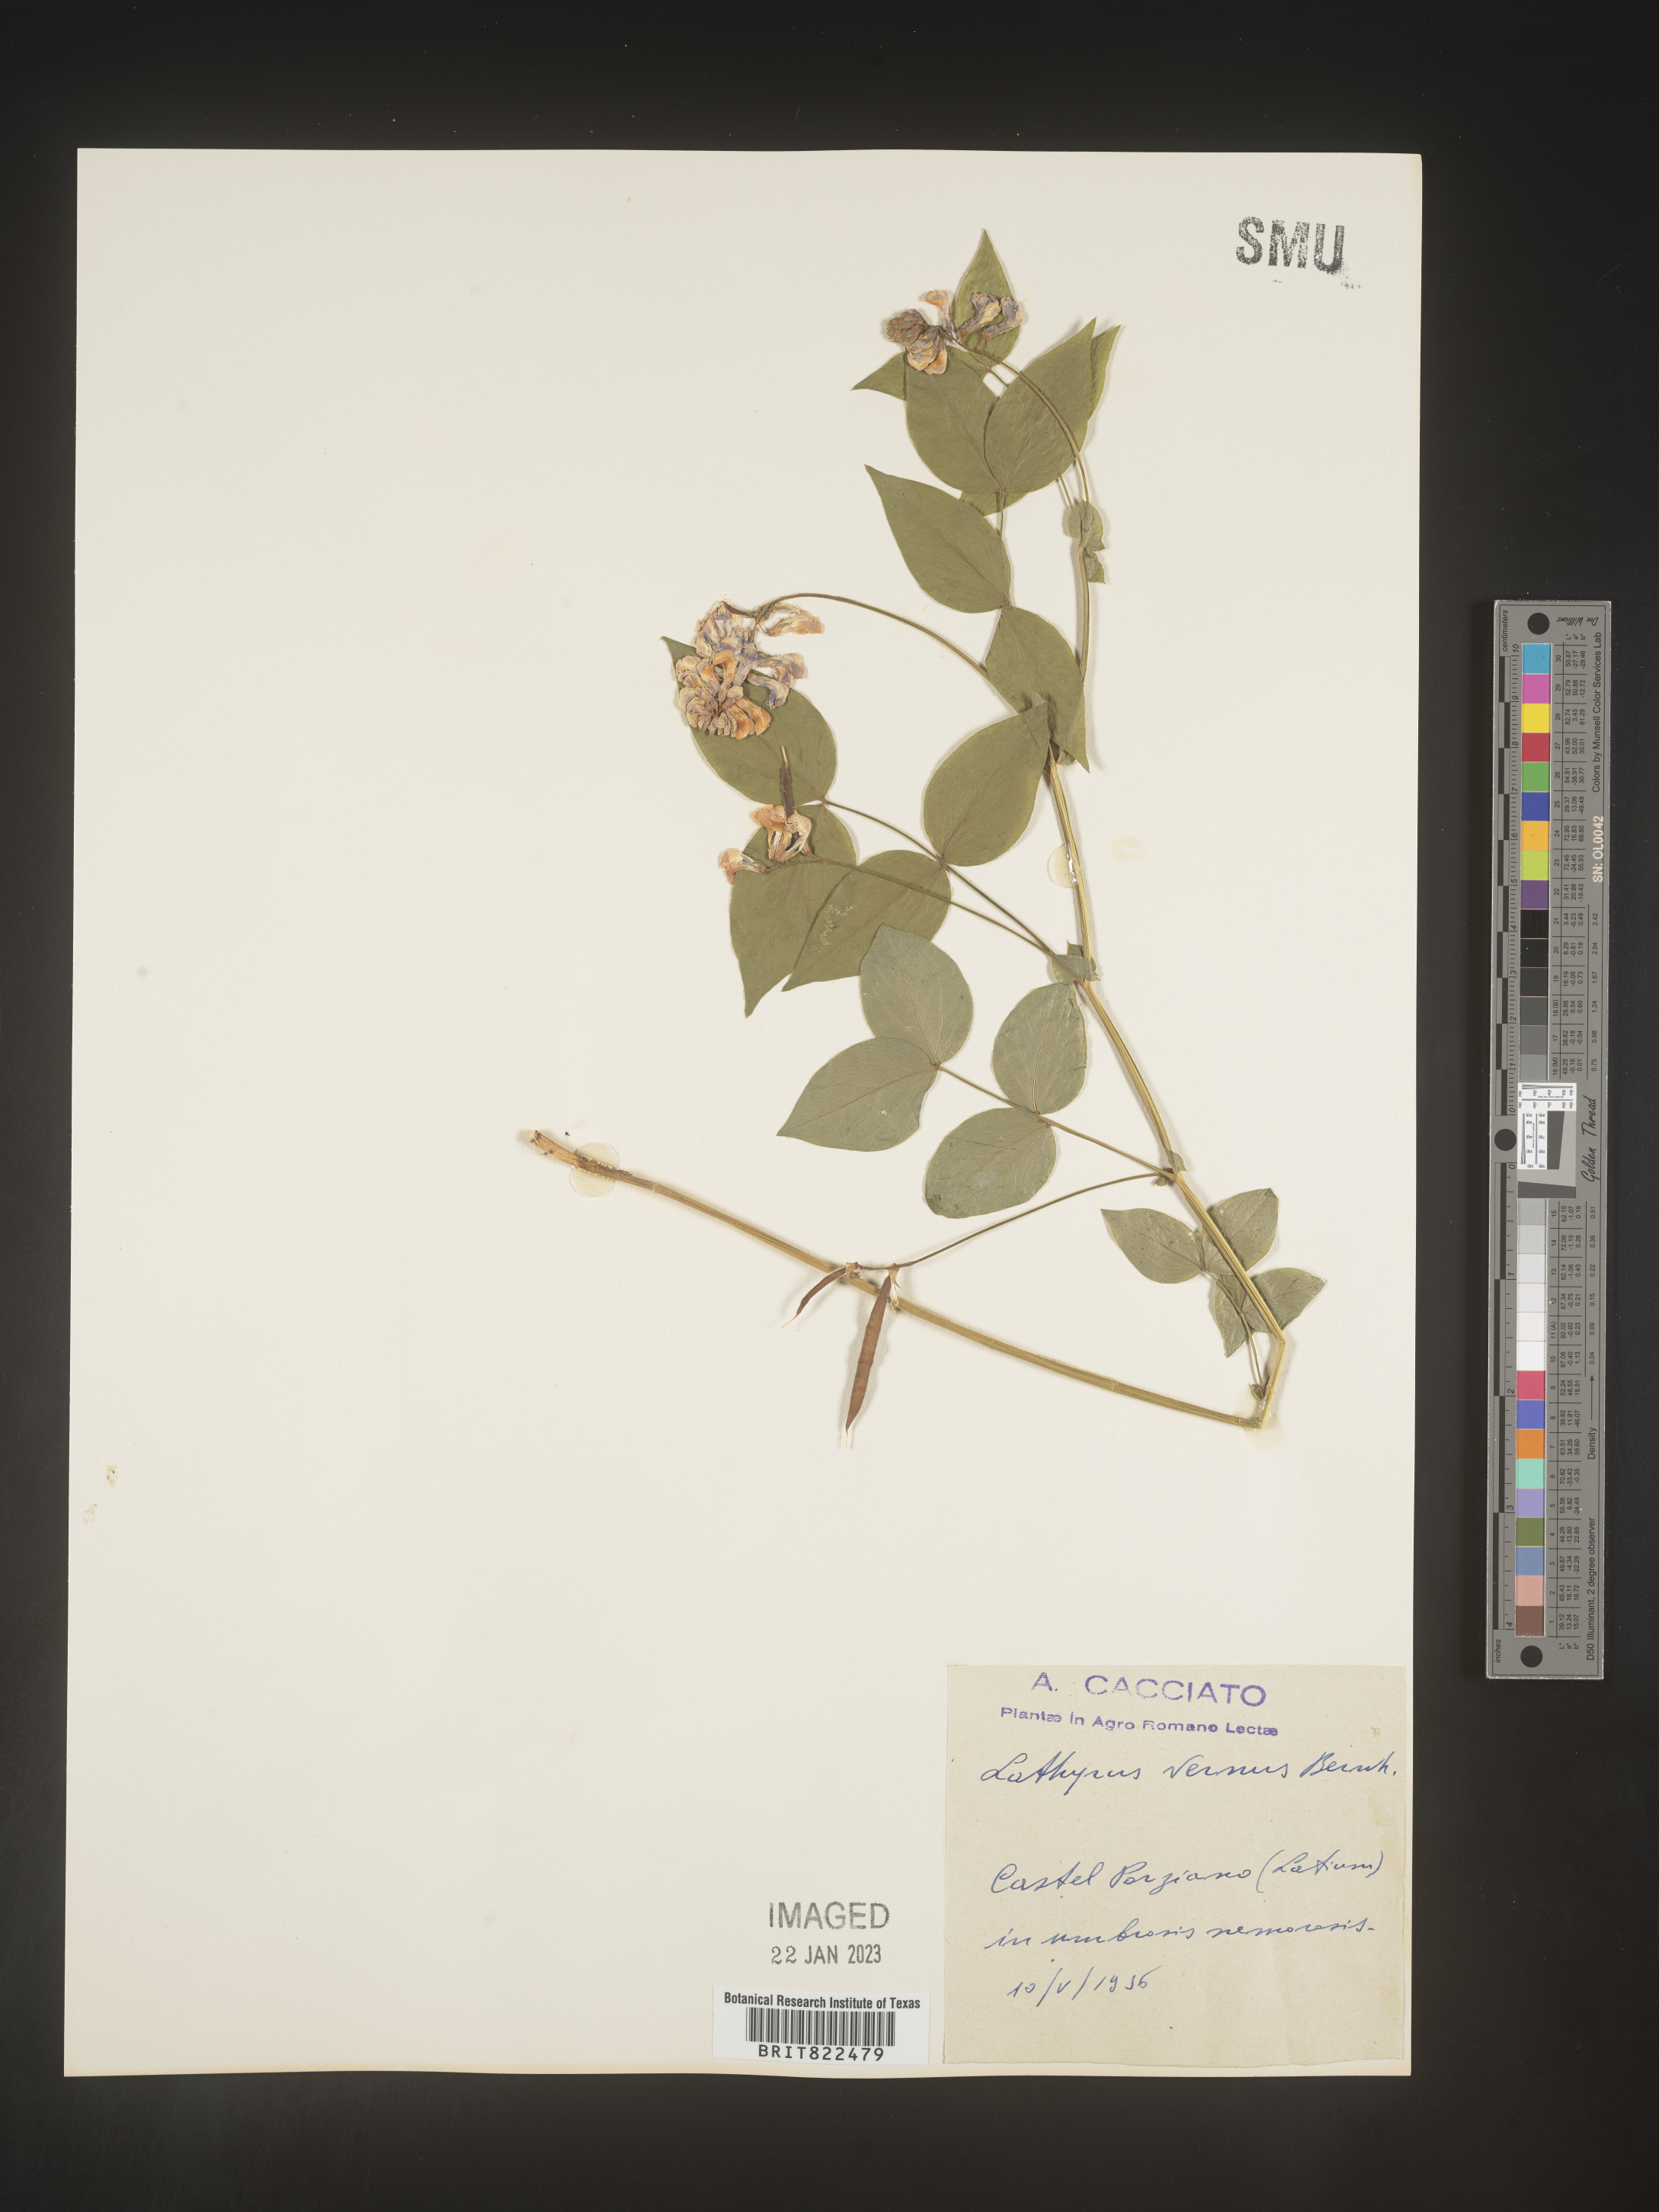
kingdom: Plantae
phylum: Tracheophyta
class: Magnoliopsida
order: Fabales
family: Fabaceae
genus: Lathyrus
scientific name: Lathyrus
